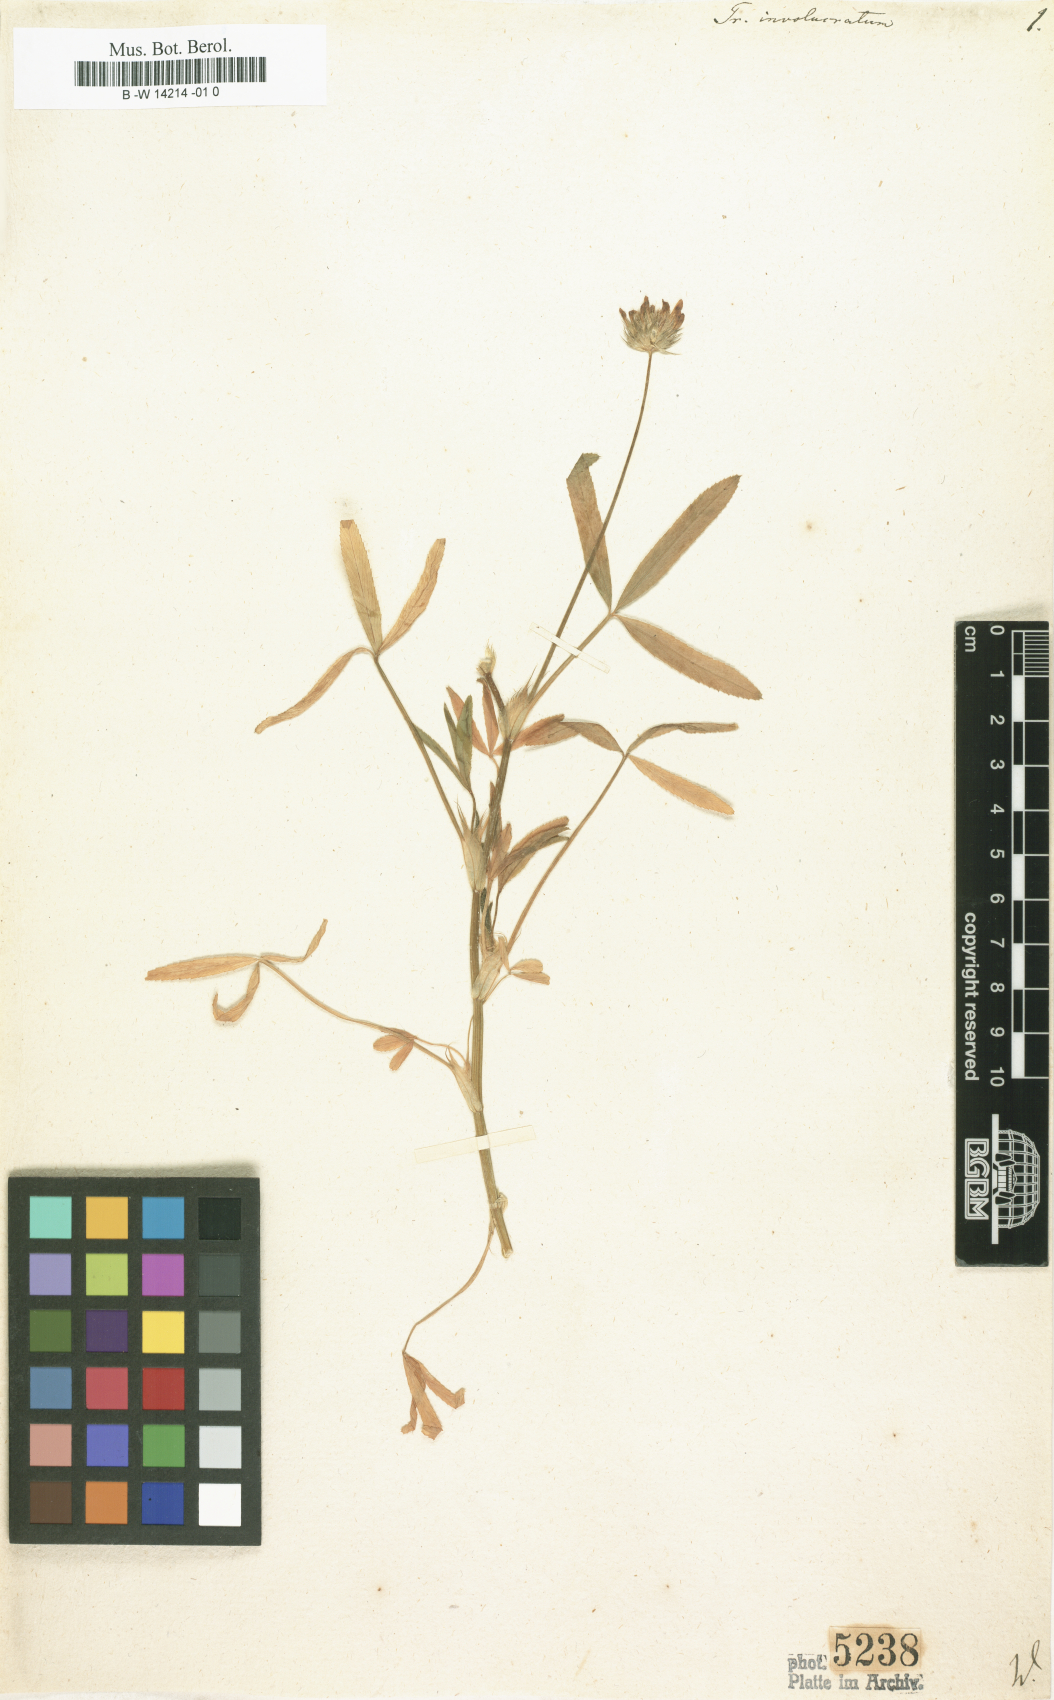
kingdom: Plantae
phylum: Tracheophyta
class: Magnoliopsida
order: Fabales
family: Fabaceae
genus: Trifolium
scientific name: Trifolium
